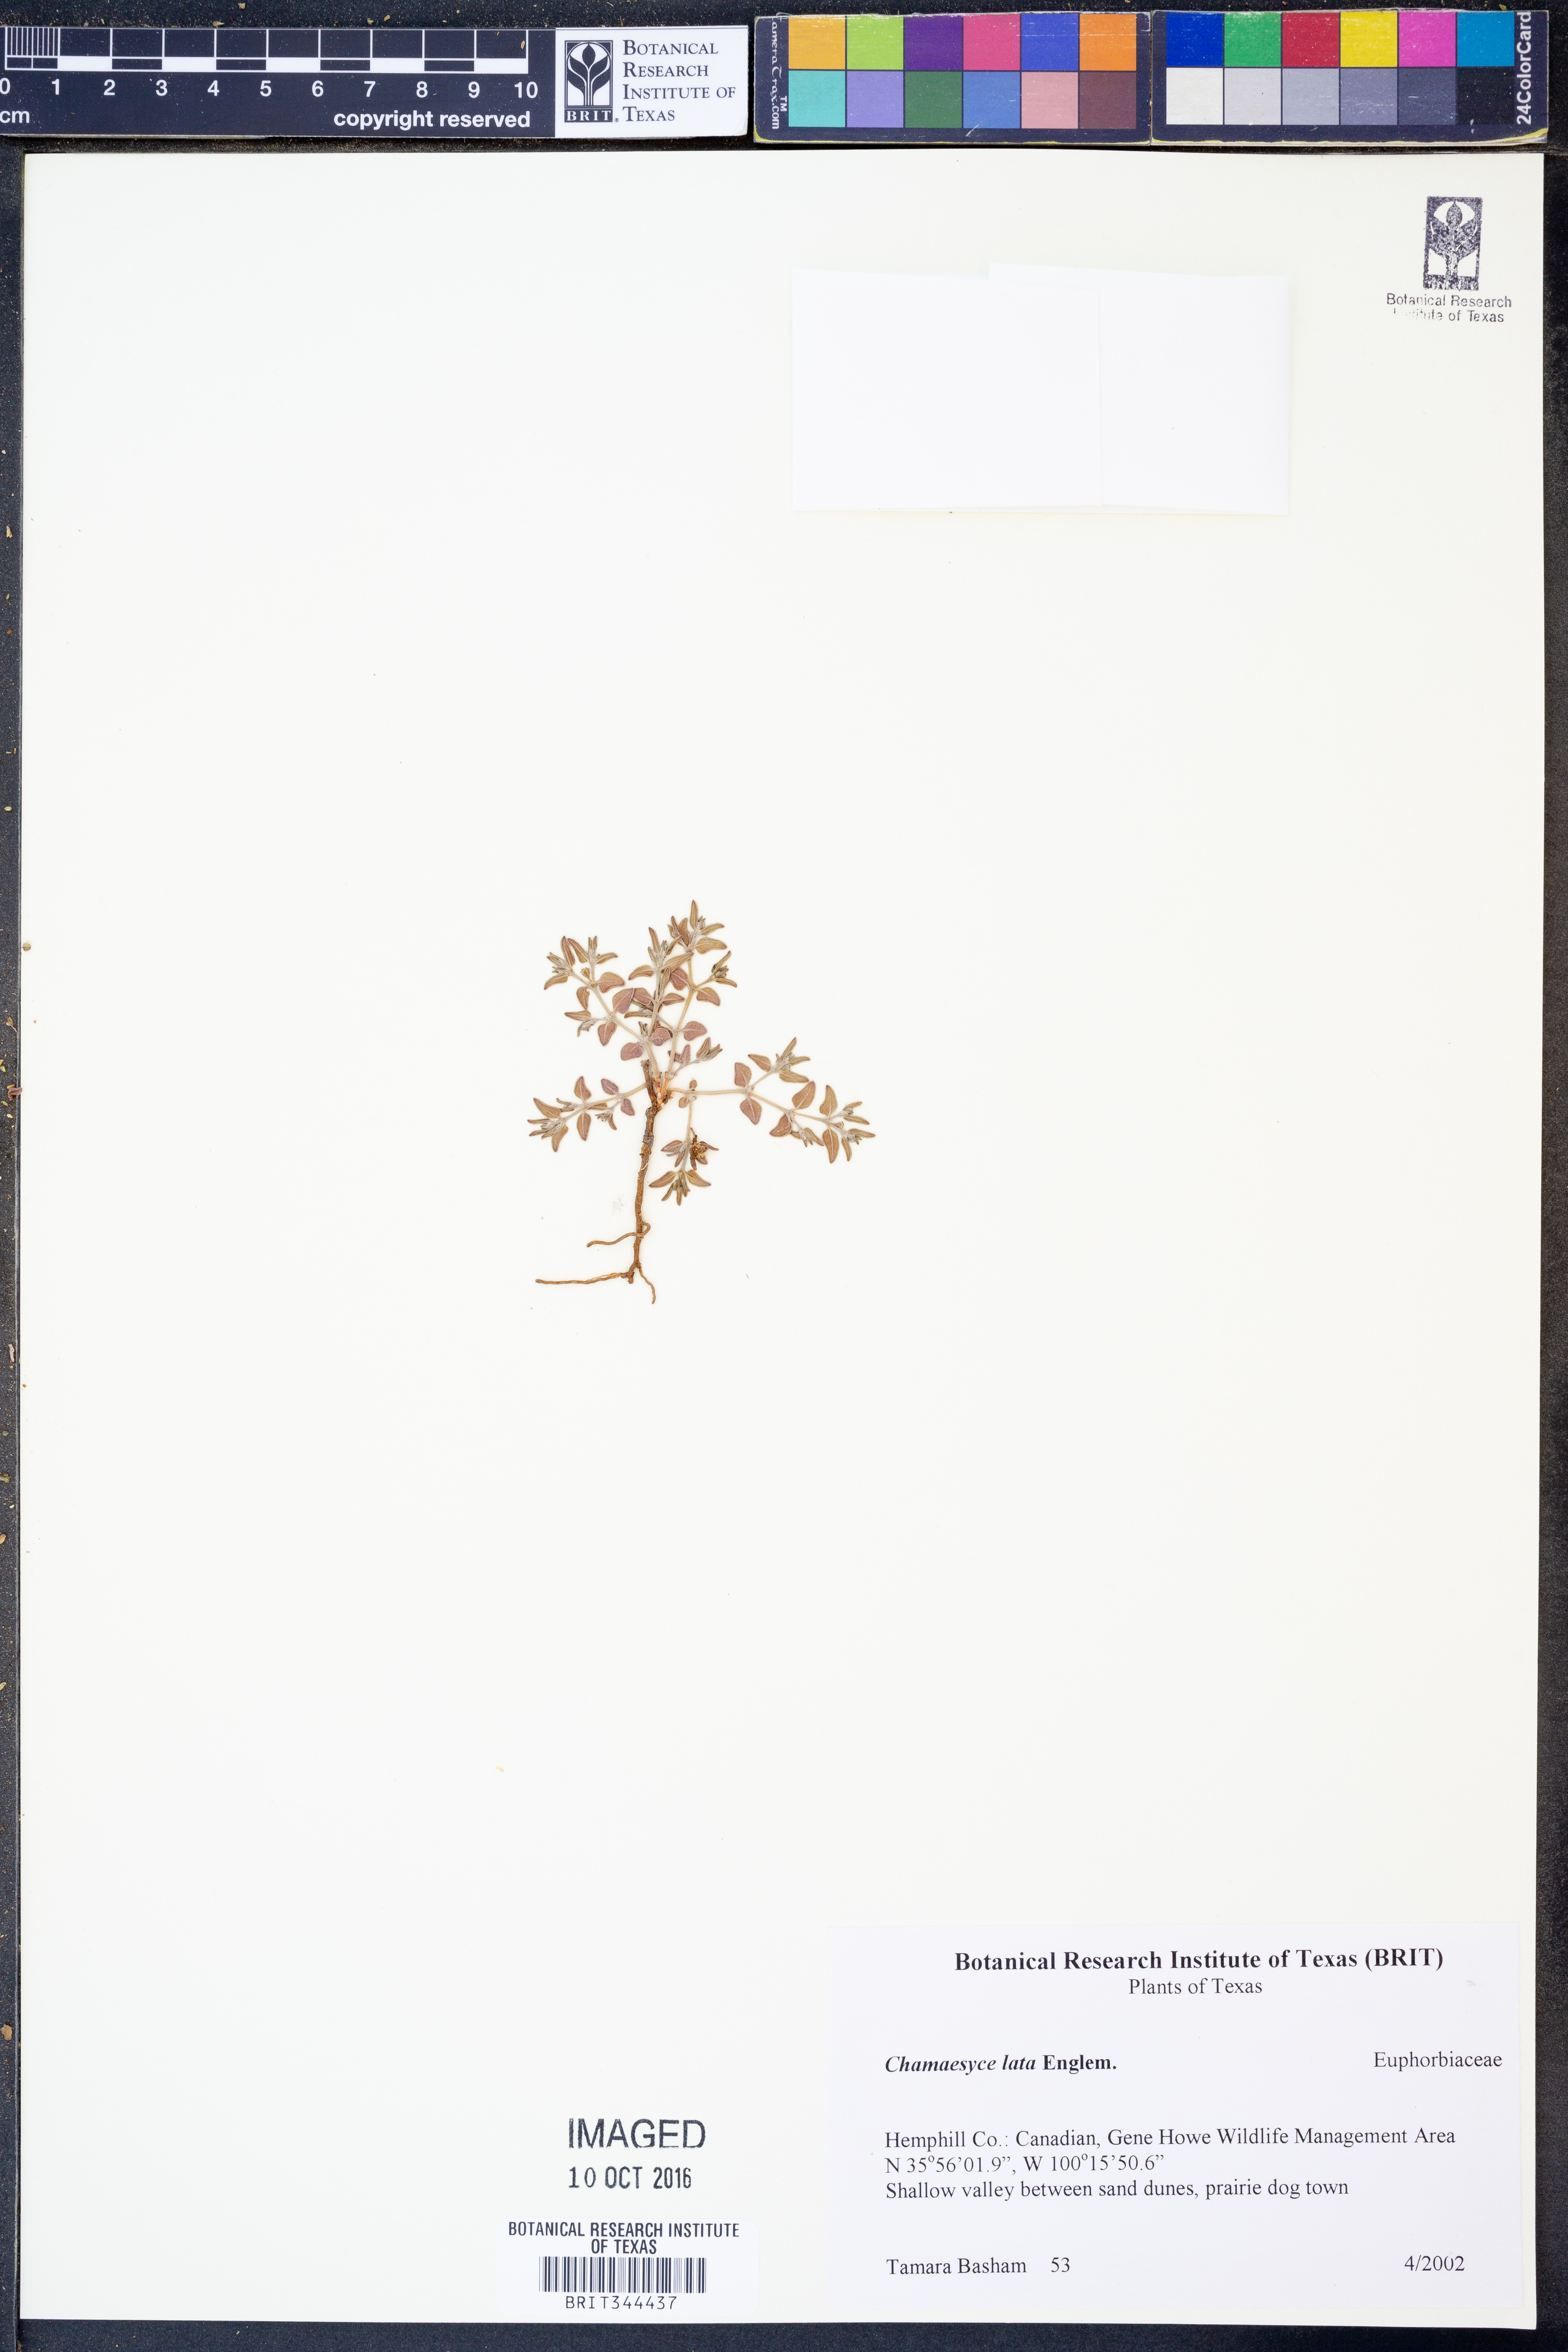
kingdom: Plantae
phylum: Tracheophyta
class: Magnoliopsida
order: Malpighiales
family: Euphorbiaceae
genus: Euphorbia
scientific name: Euphorbia lata
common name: Hoary euphorbia
